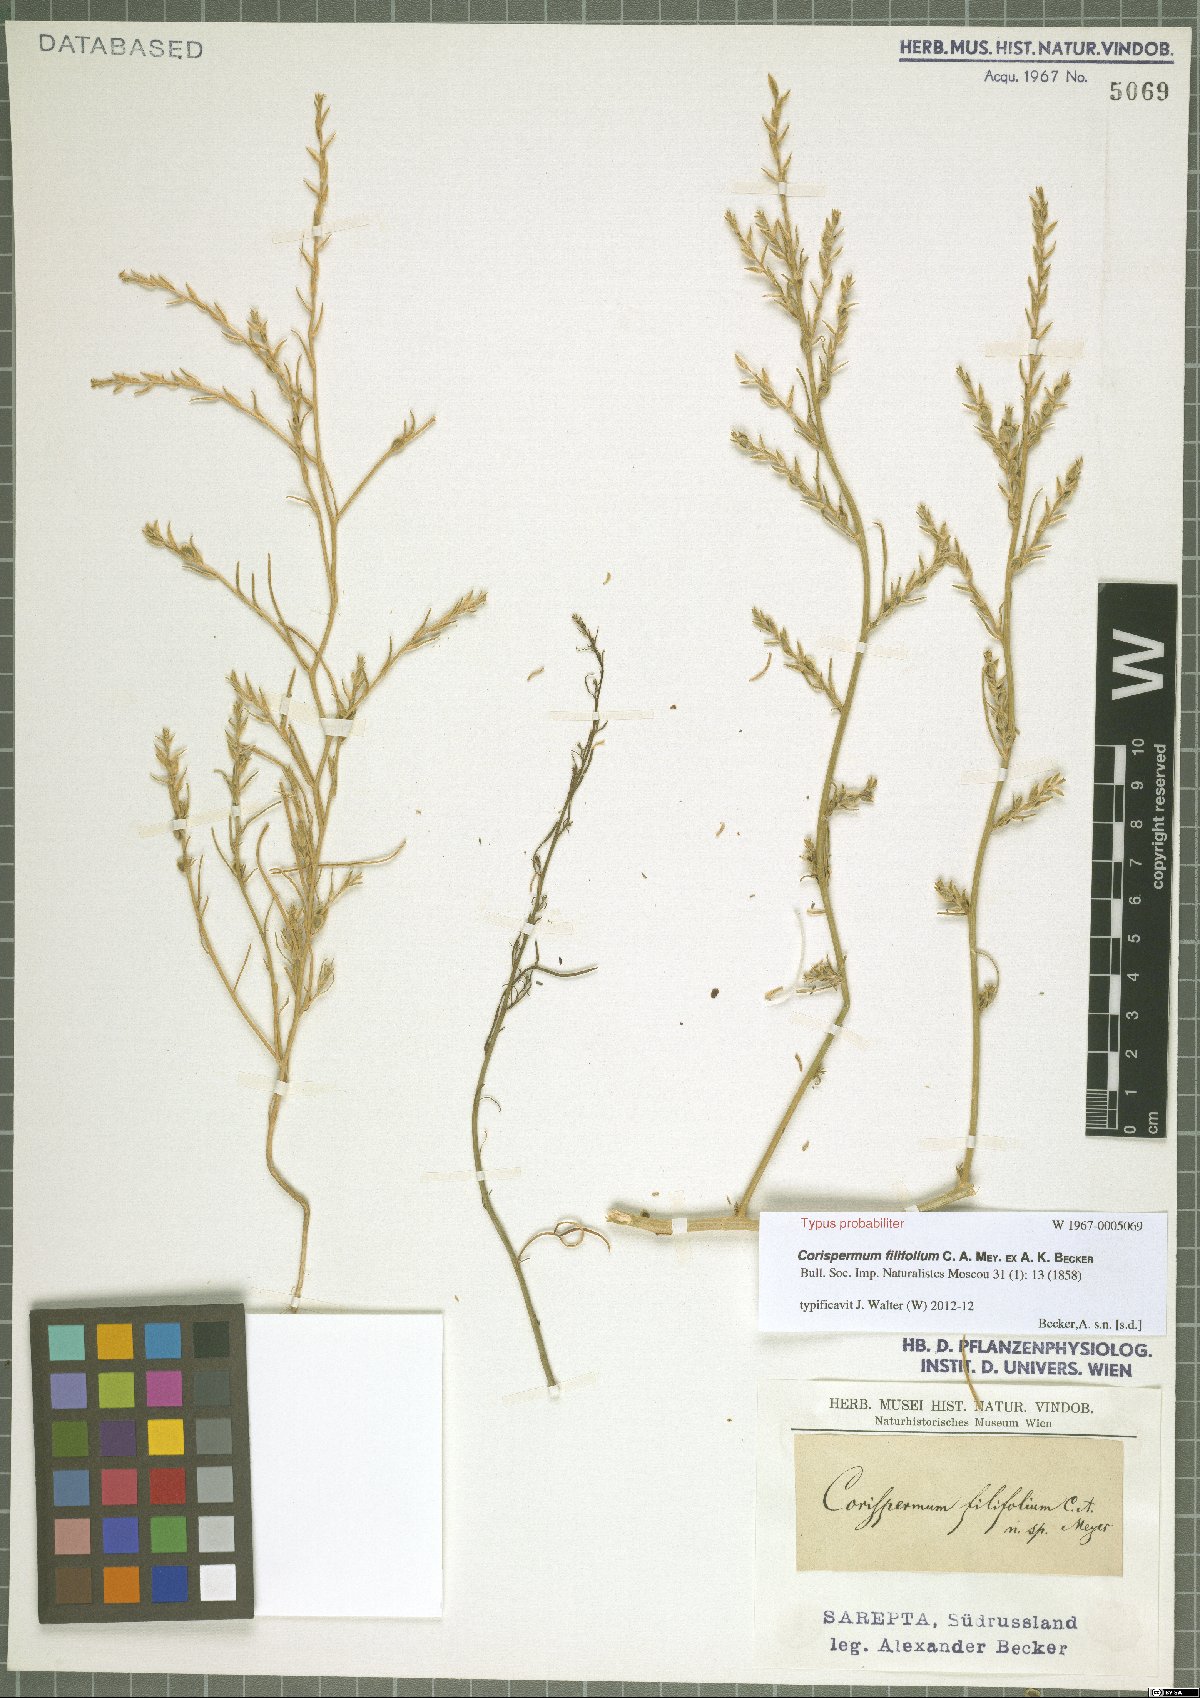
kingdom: Plantae
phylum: Tracheophyta
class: Magnoliopsida
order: Caryophyllales
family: Amaranthaceae
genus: Corispermum
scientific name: Corispermum filifolium
